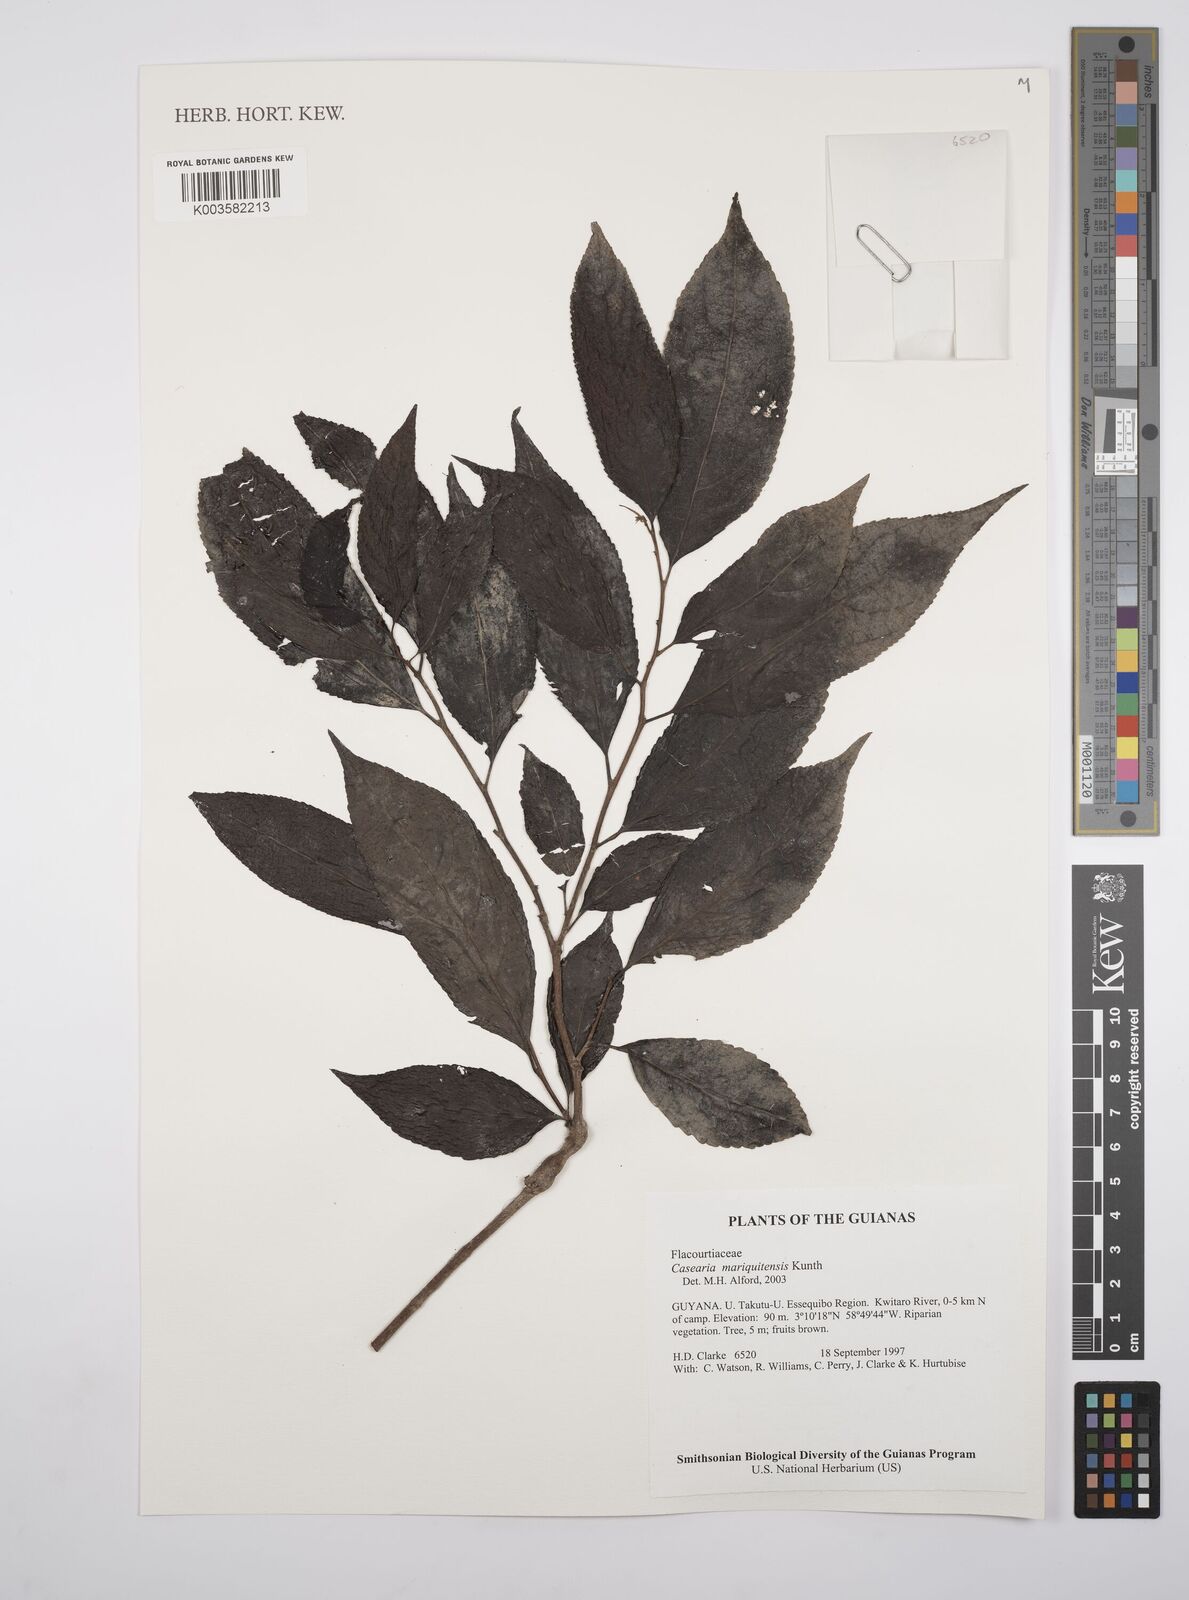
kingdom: Plantae
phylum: Tracheophyta
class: Magnoliopsida
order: Malpighiales
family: Salicaceae
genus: Casearia
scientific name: Casearia mariquitensis
